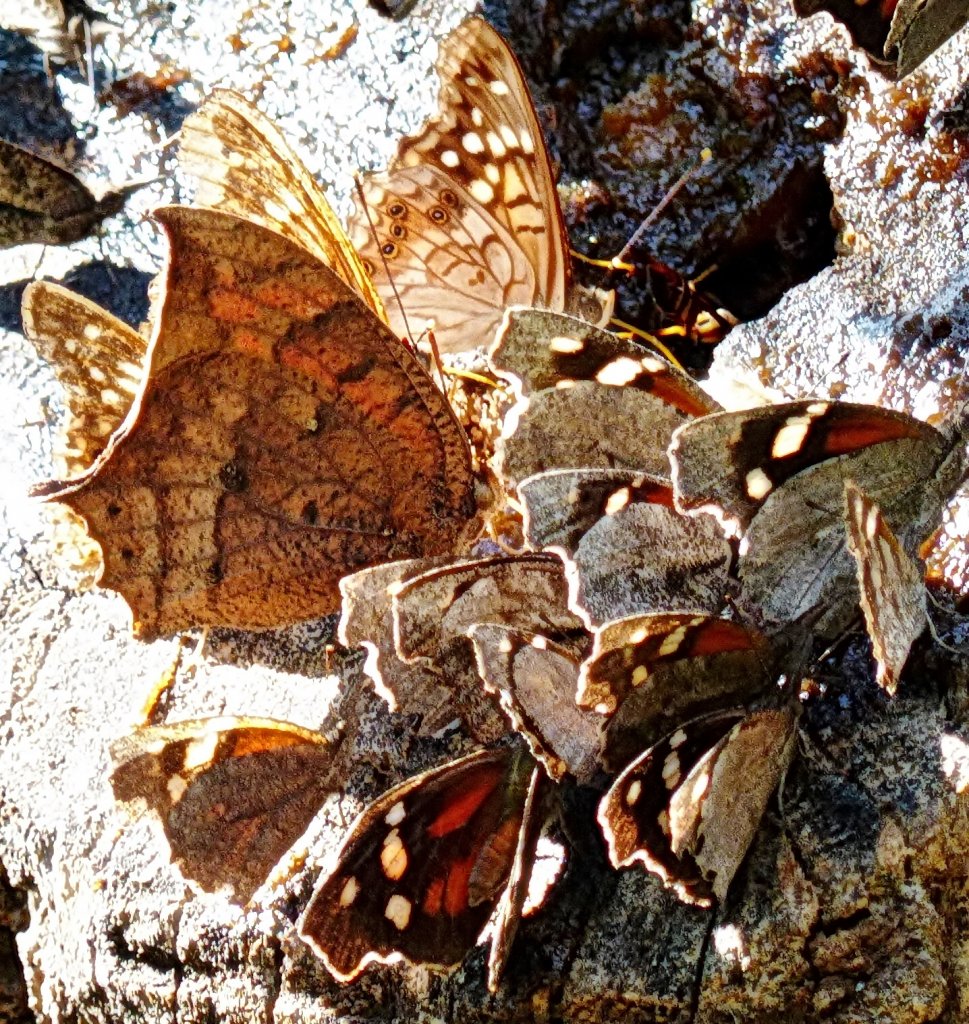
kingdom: Animalia
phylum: Arthropoda
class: Insecta
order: Lepidoptera
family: Nymphalidae
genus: Anaea
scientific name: Anaea aidea
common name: Tropical Leafwing
